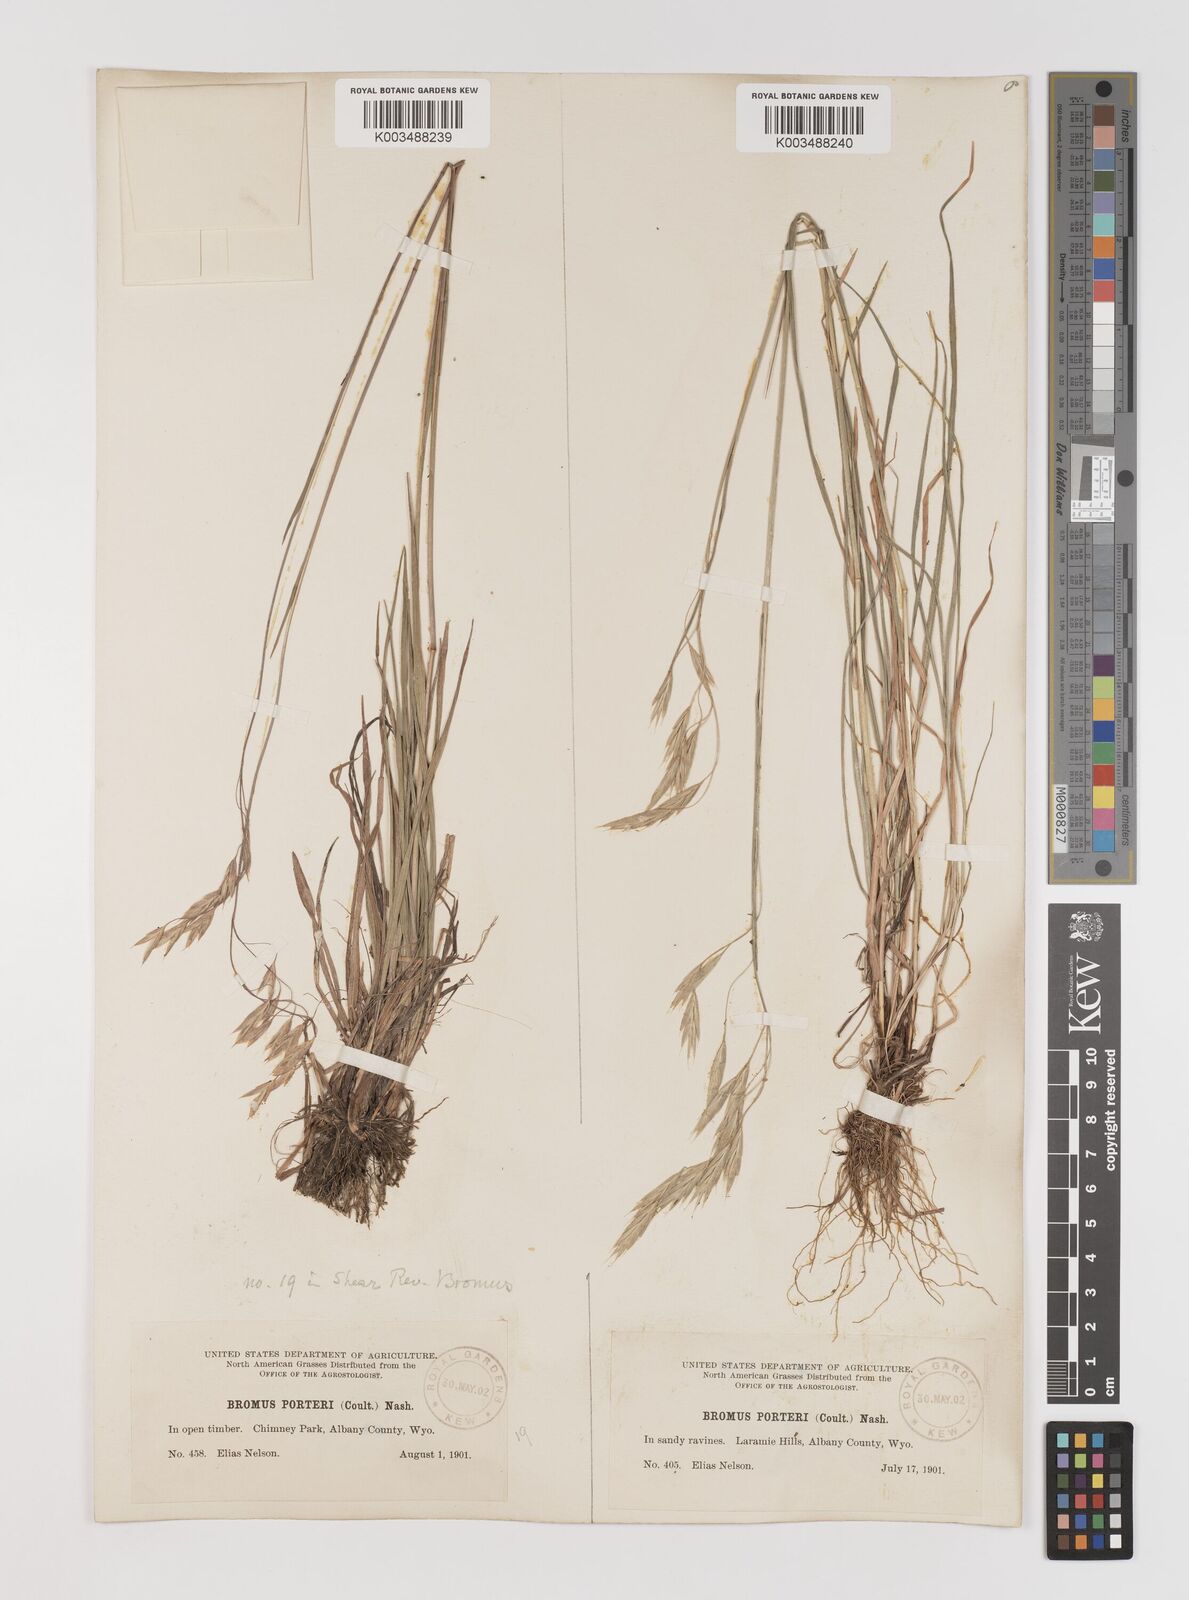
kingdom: Plantae
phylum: Tracheophyta
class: Liliopsida
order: Poales
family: Poaceae
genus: Bromus
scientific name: Bromus porteri
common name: Nodding brome
